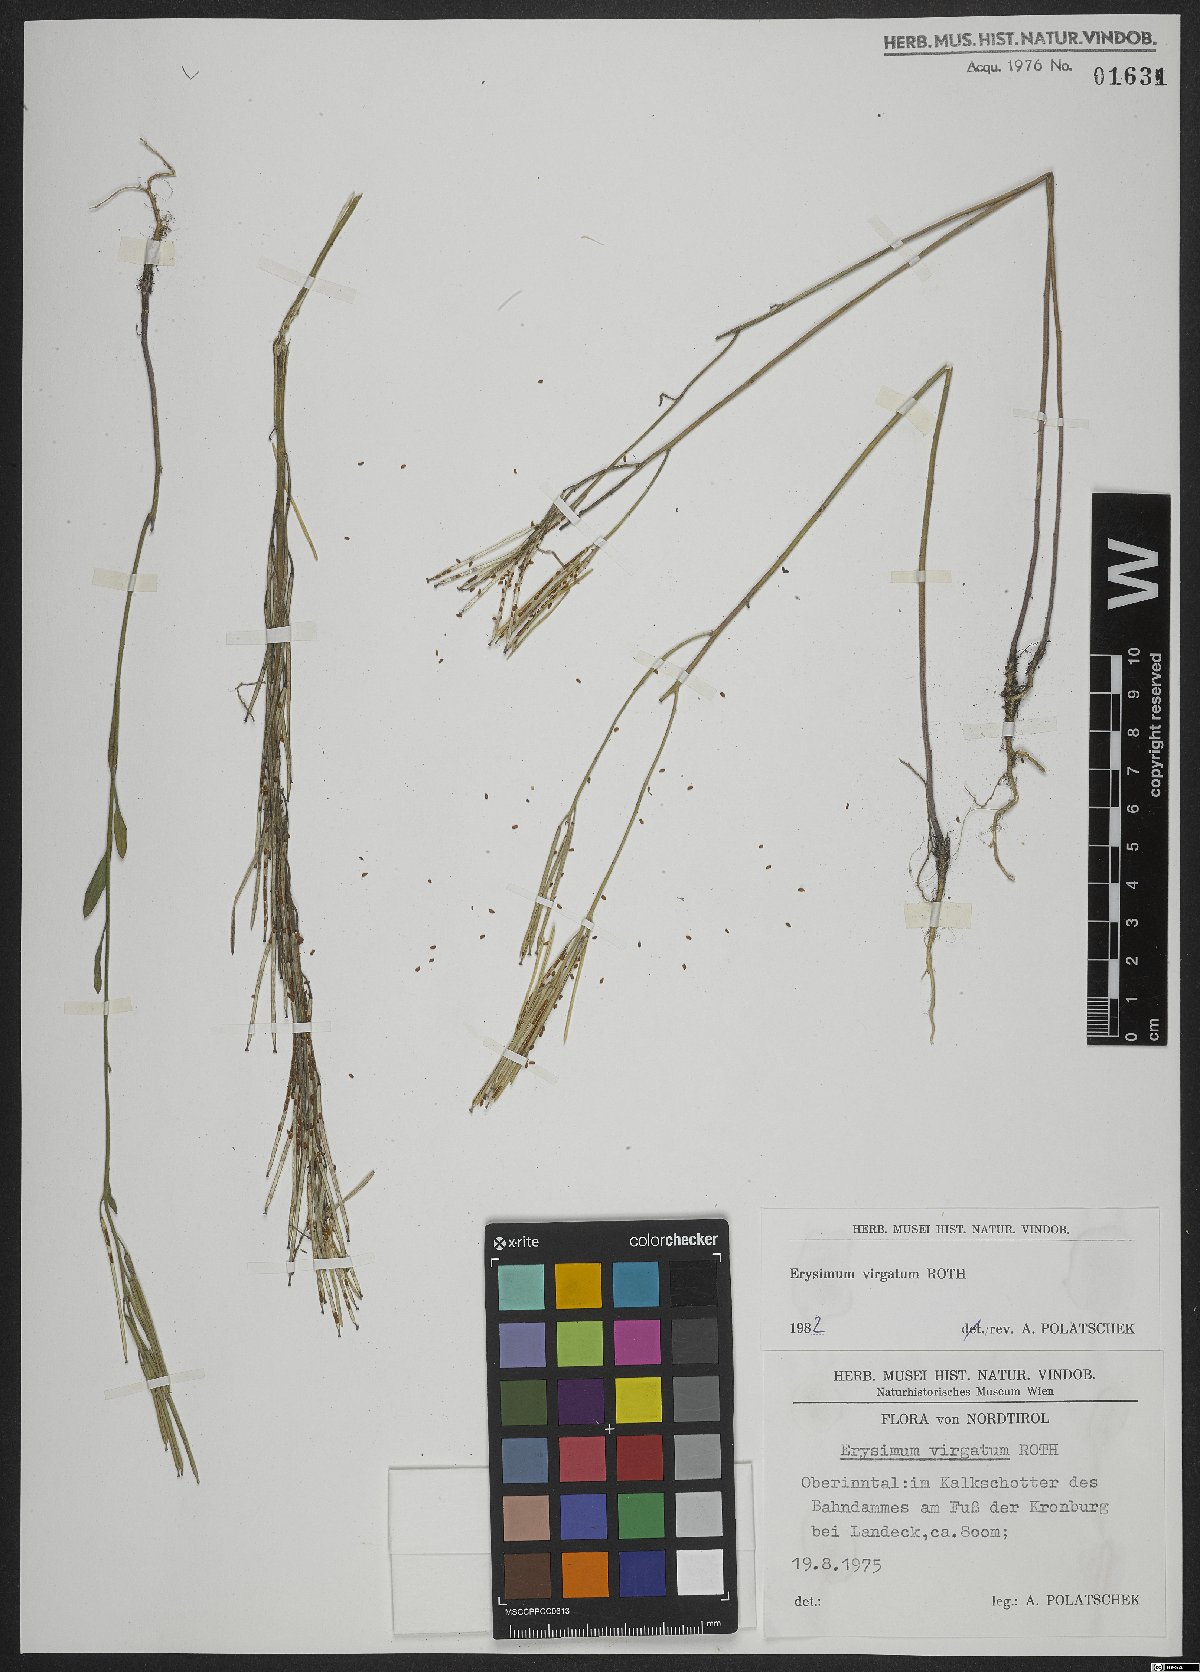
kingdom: Plantae
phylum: Tracheophyta
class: Magnoliopsida
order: Brassicales
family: Brassicaceae
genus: Erysimum
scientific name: Erysimum virgatum
